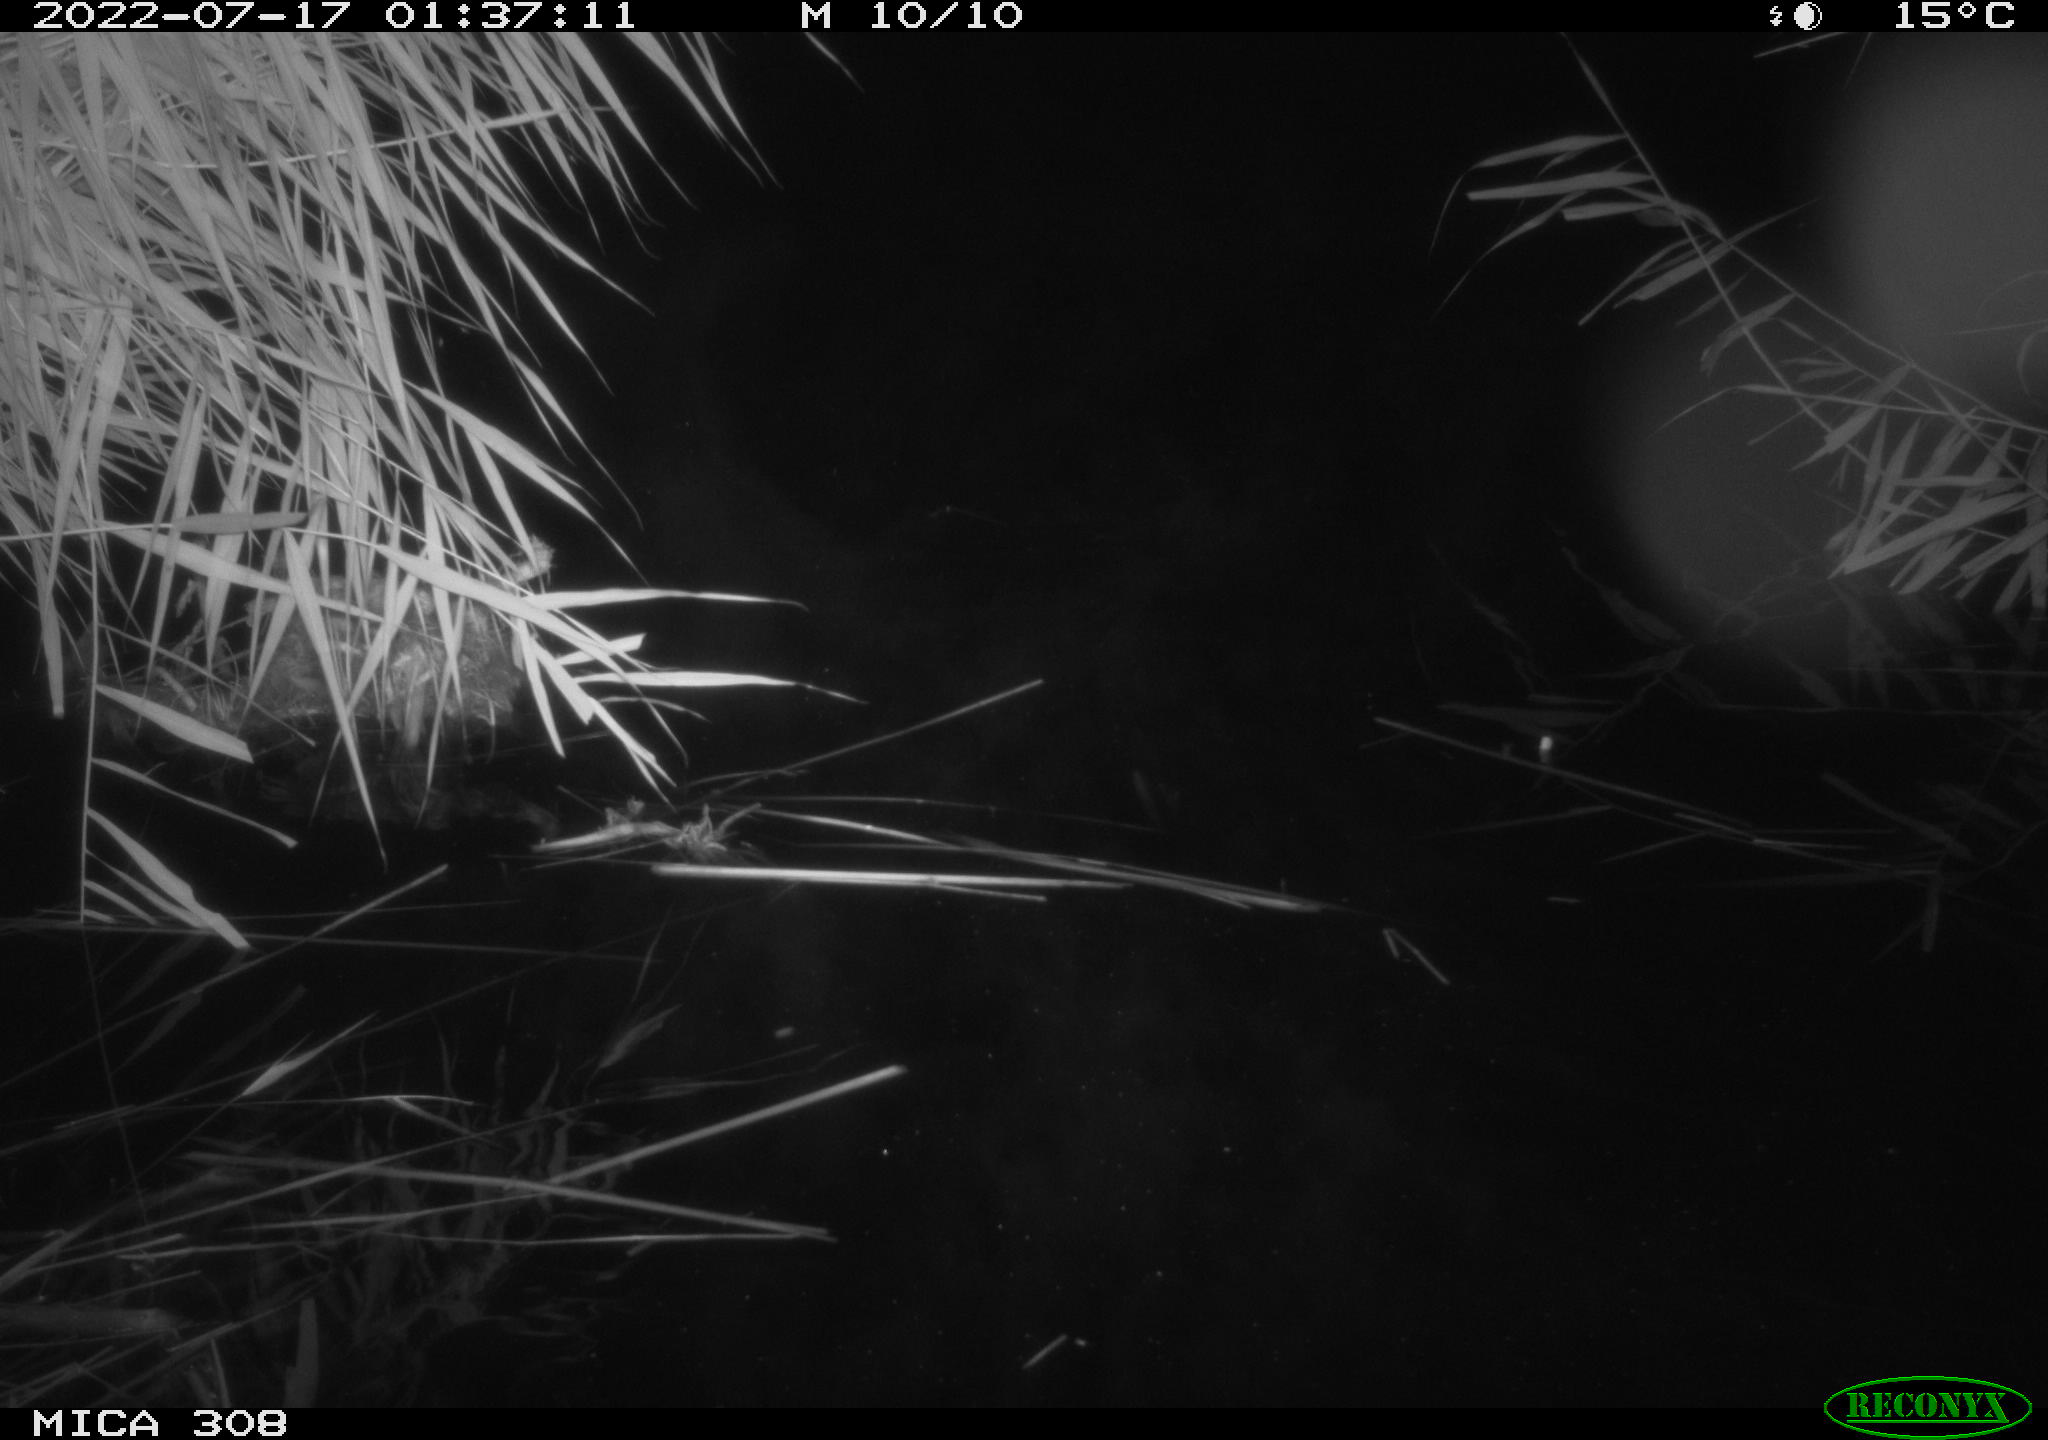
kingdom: Animalia
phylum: Chordata
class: Aves
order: Anseriformes
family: Anatidae
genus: Anas
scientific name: Anas platyrhynchos
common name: Mallard
